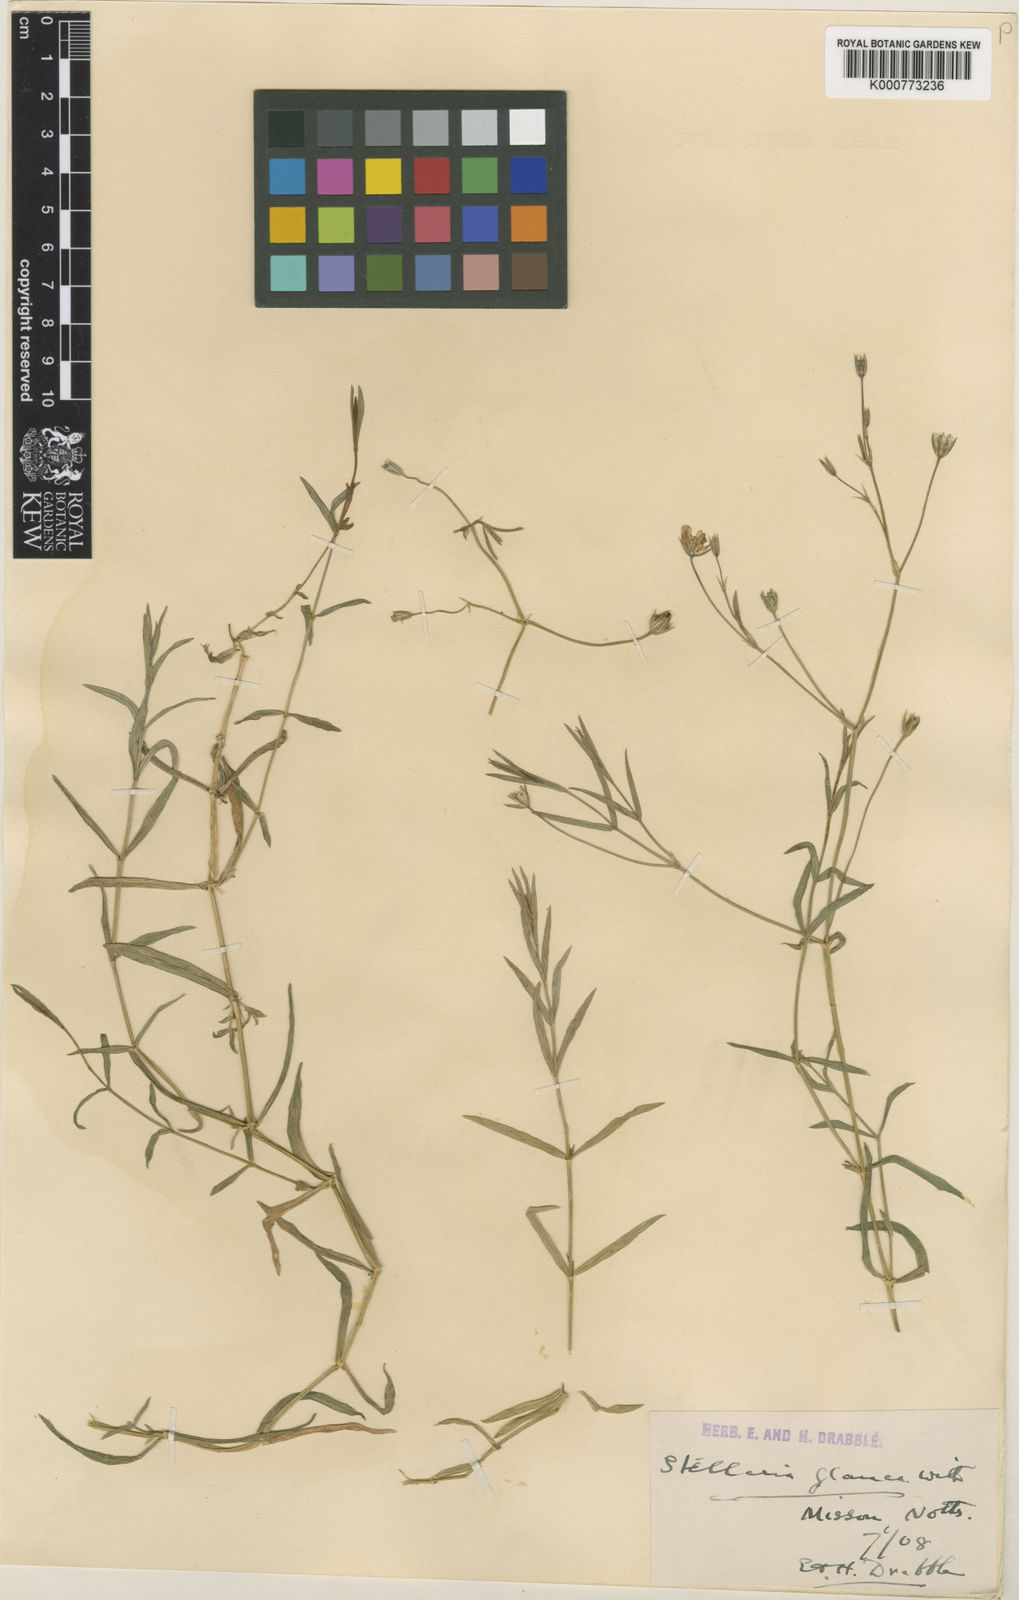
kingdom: Plantae
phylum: Tracheophyta
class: Magnoliopsida
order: Caryophyllales
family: Caryophyllaceae
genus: Stellaria
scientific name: Stellaria
